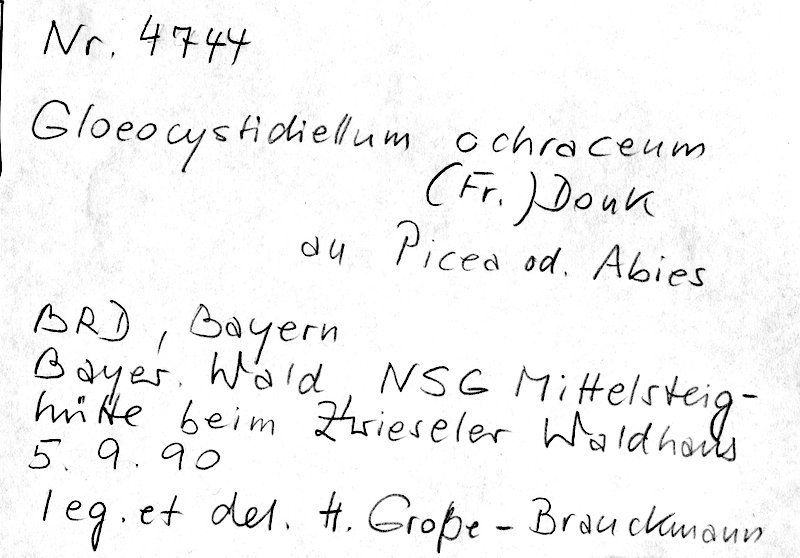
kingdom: Plantae
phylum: Tracheophyta
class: Pinopsida
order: Pinales
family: Pinaceae
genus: Picea
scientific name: Picea
